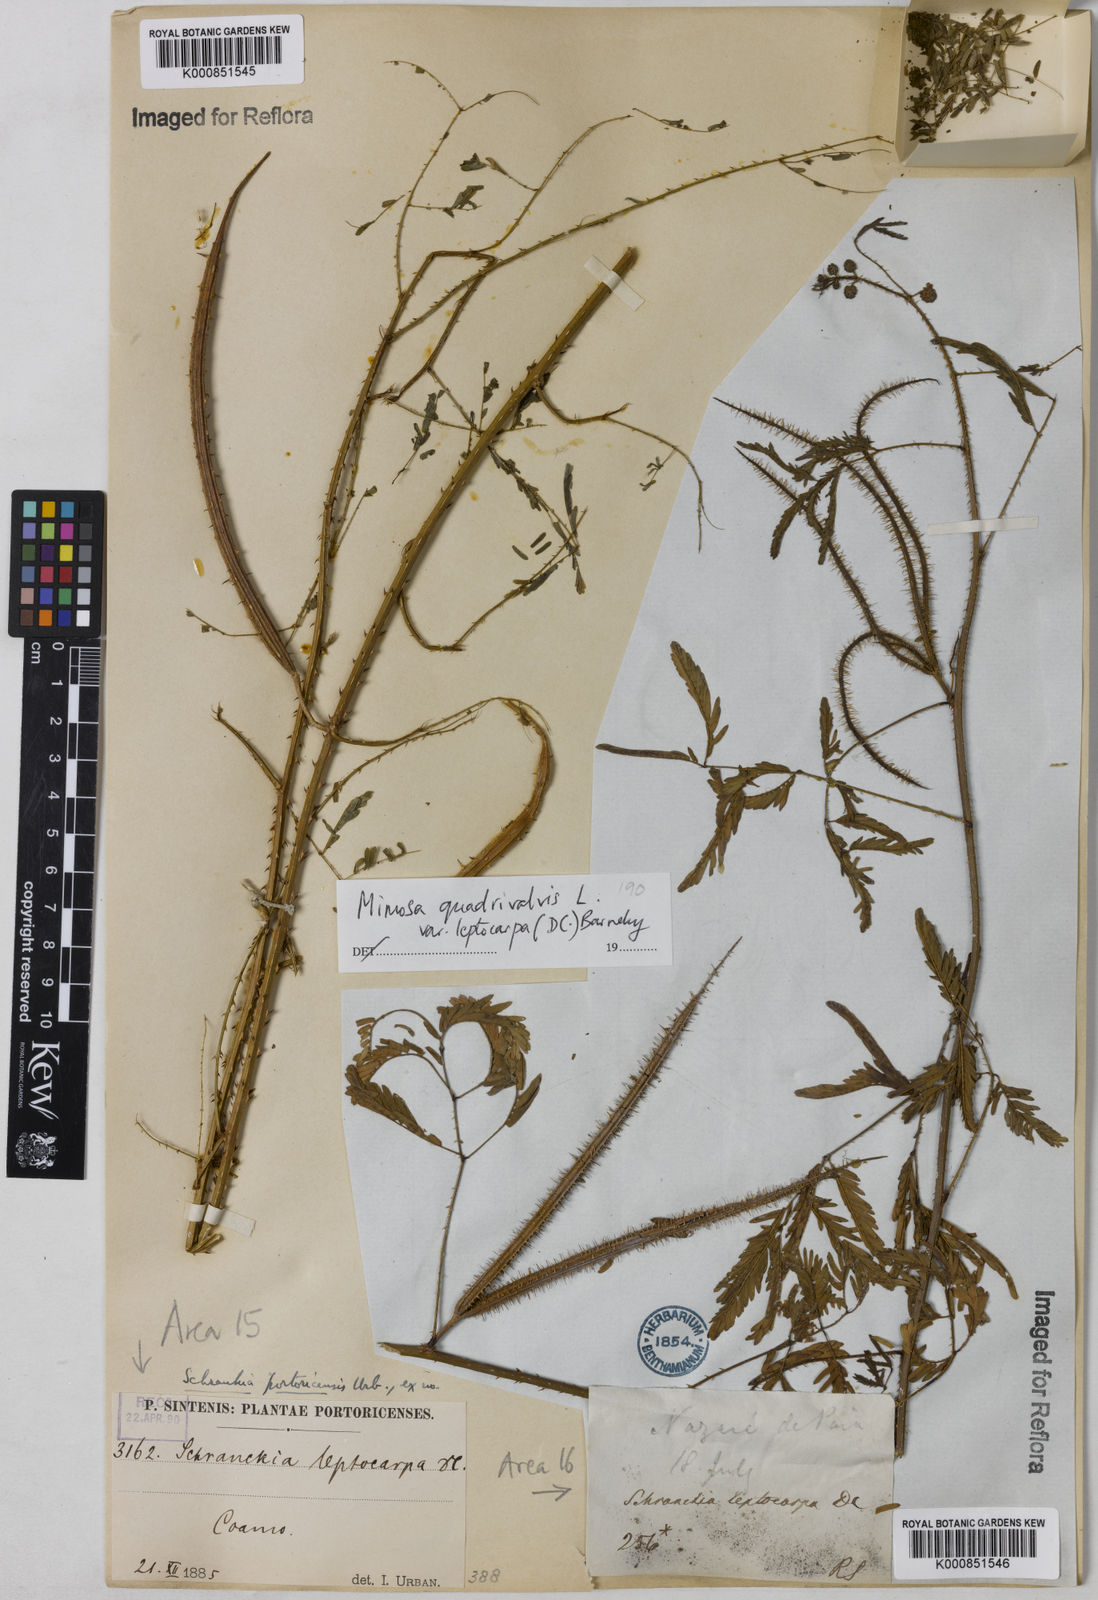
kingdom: Plantae
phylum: Tracheophyta
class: Magnoliopsida
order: Fabales
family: Fabaceae
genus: Mimosa
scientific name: Mimosa candollei
